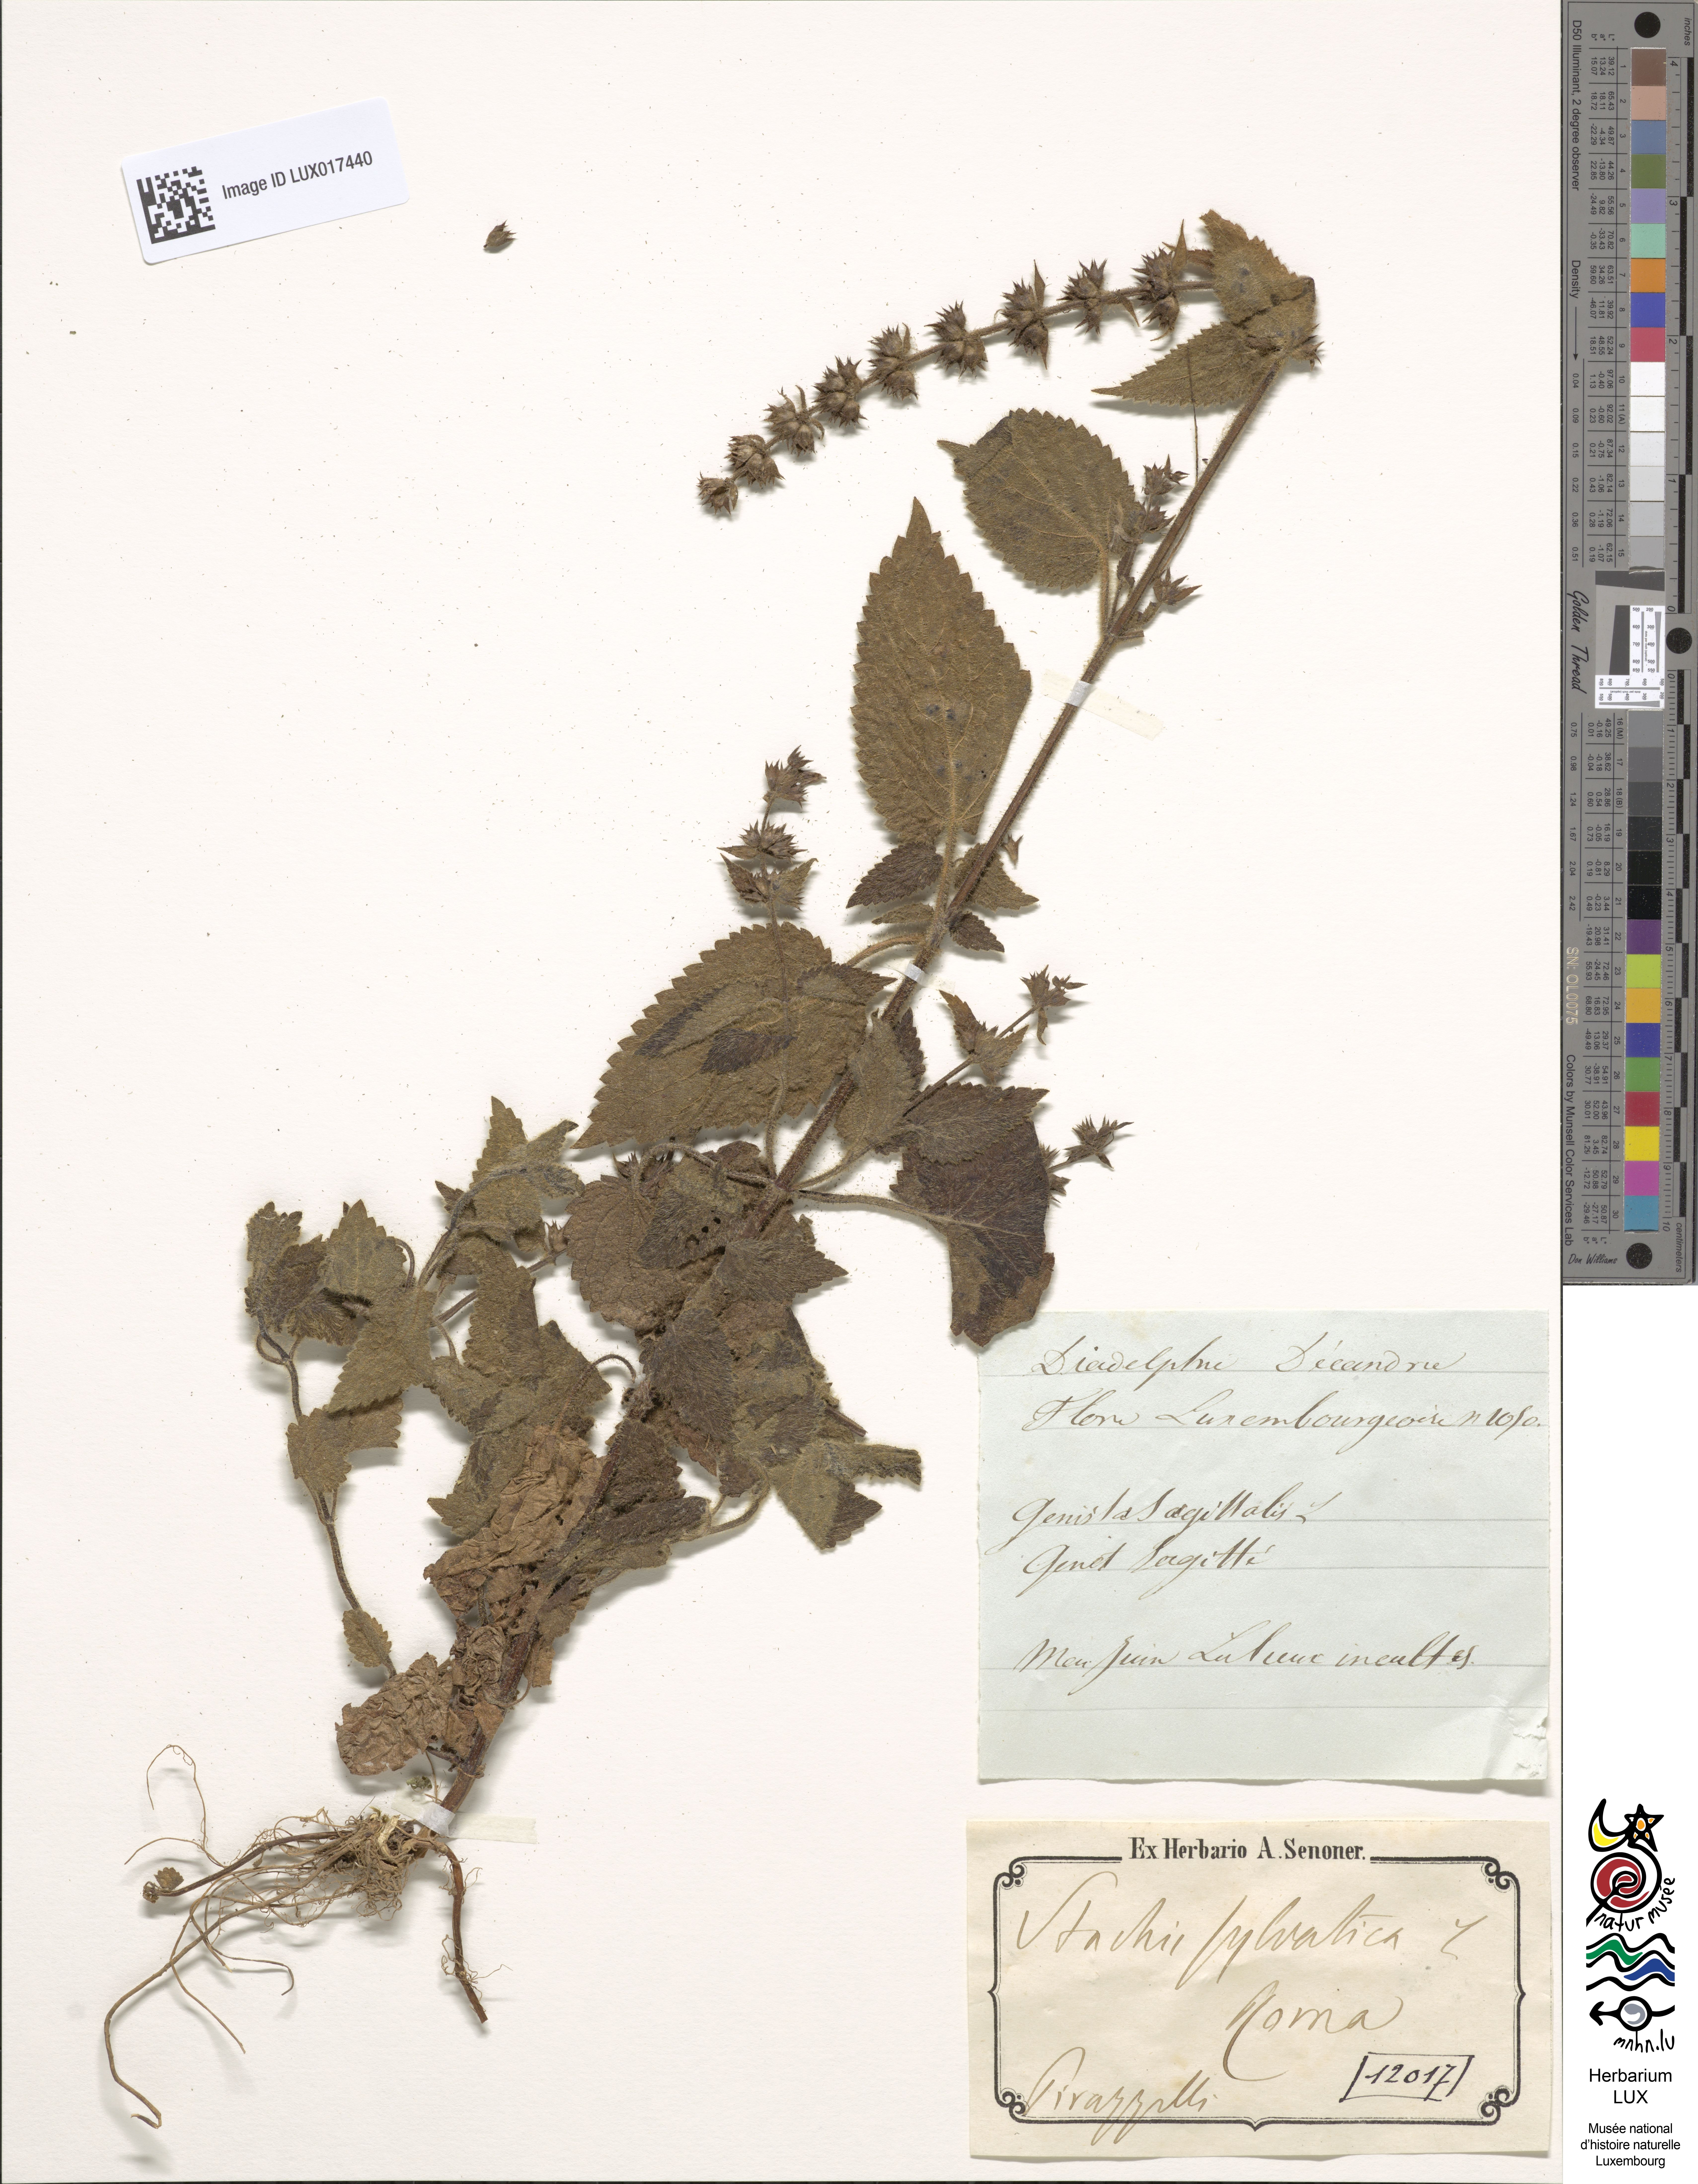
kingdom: Plantae
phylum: Tracheophyta
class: Magnoliopsida
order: Lamiales
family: Lamiaceae
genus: Stachys
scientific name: Stachys sylvatica
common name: Hedge woundwort
